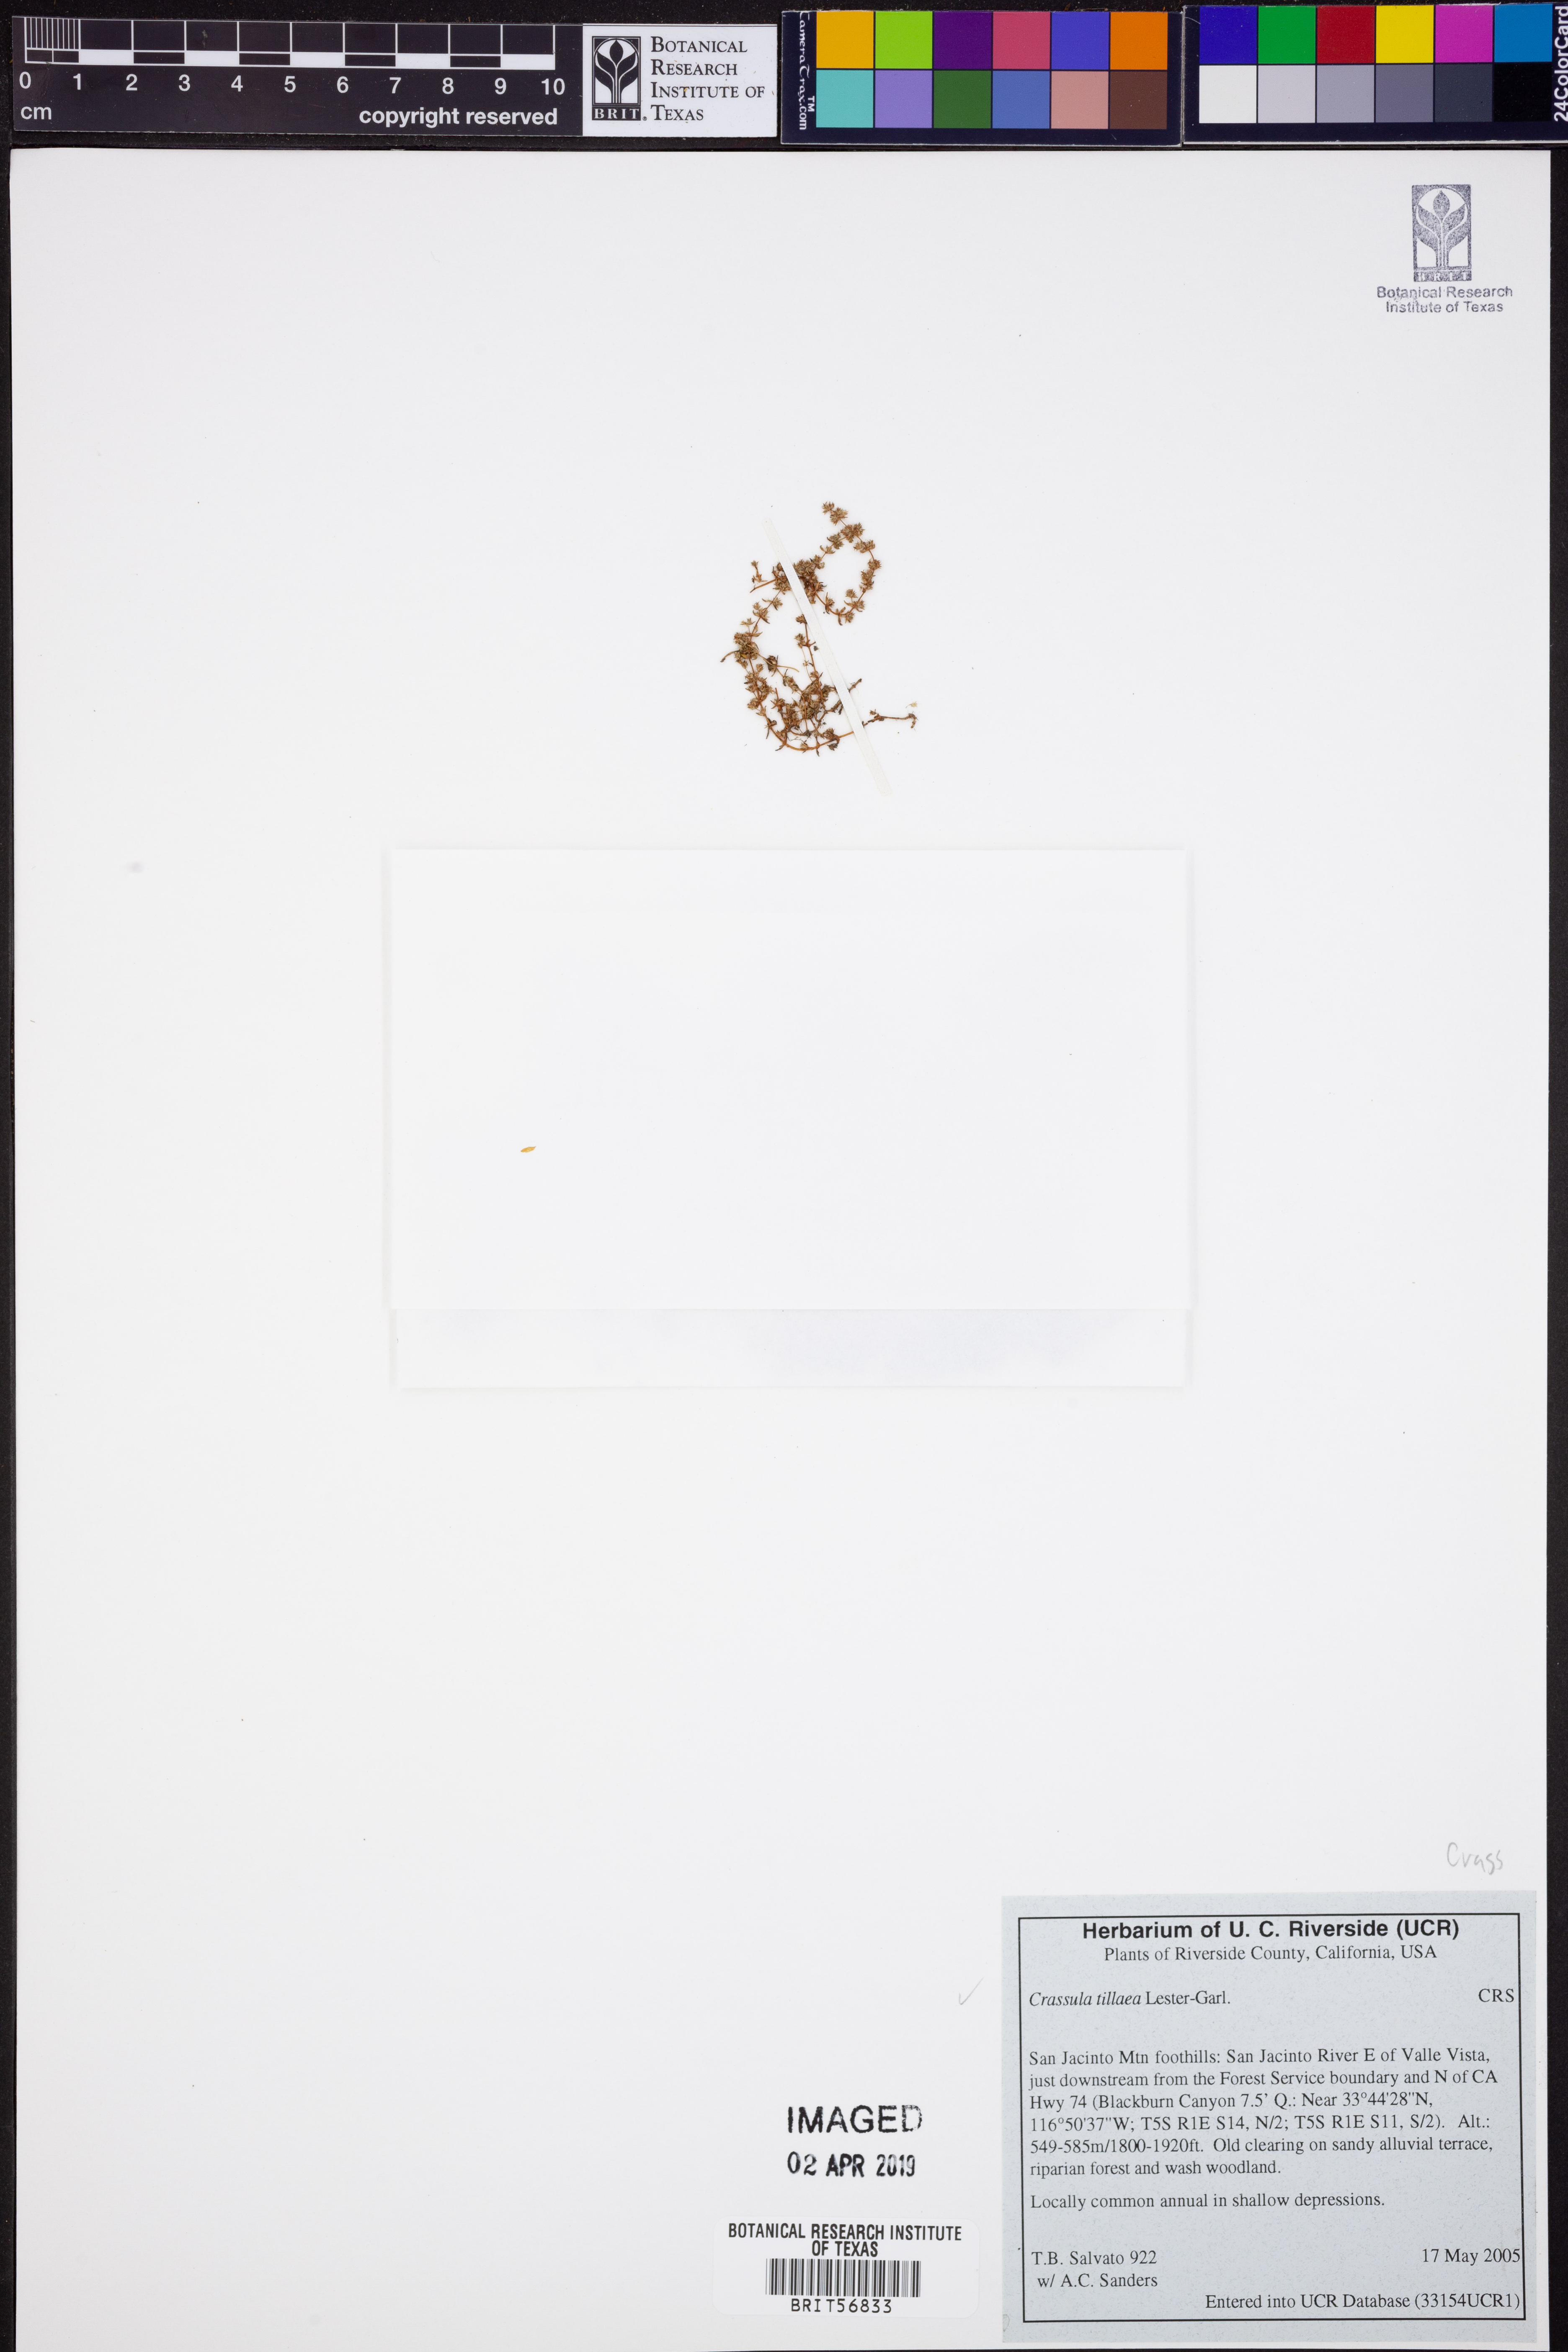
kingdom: Plantae
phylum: Tracheophyta
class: Magnoliopsida
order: Saxifragales
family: Crassulaceae
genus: Crassula
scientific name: Crassula tillaea
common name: Mossy stonecrop
